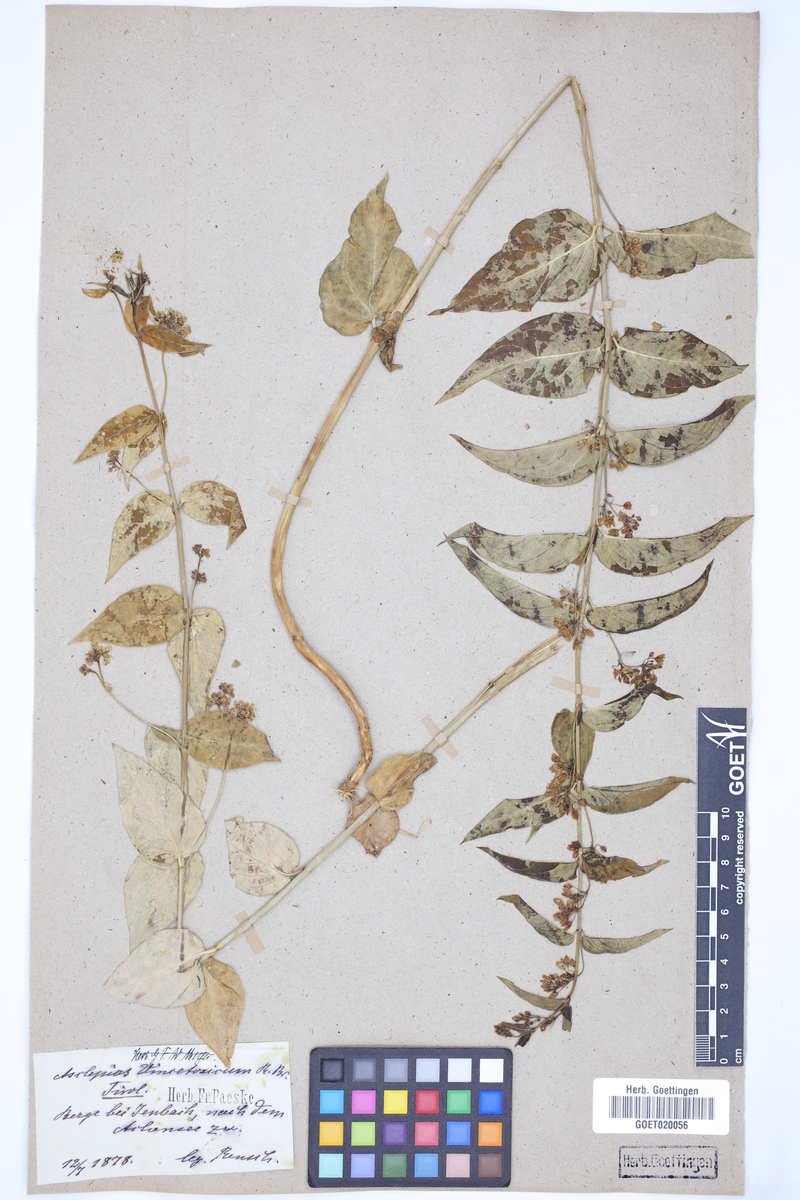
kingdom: Plantae
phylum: Tracheophyta
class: Magnoliopsida
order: Gentianales
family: Apocynaceae
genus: Vincetoxicum
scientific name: Vincetoxicum hirundinaria
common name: White swallowwort
